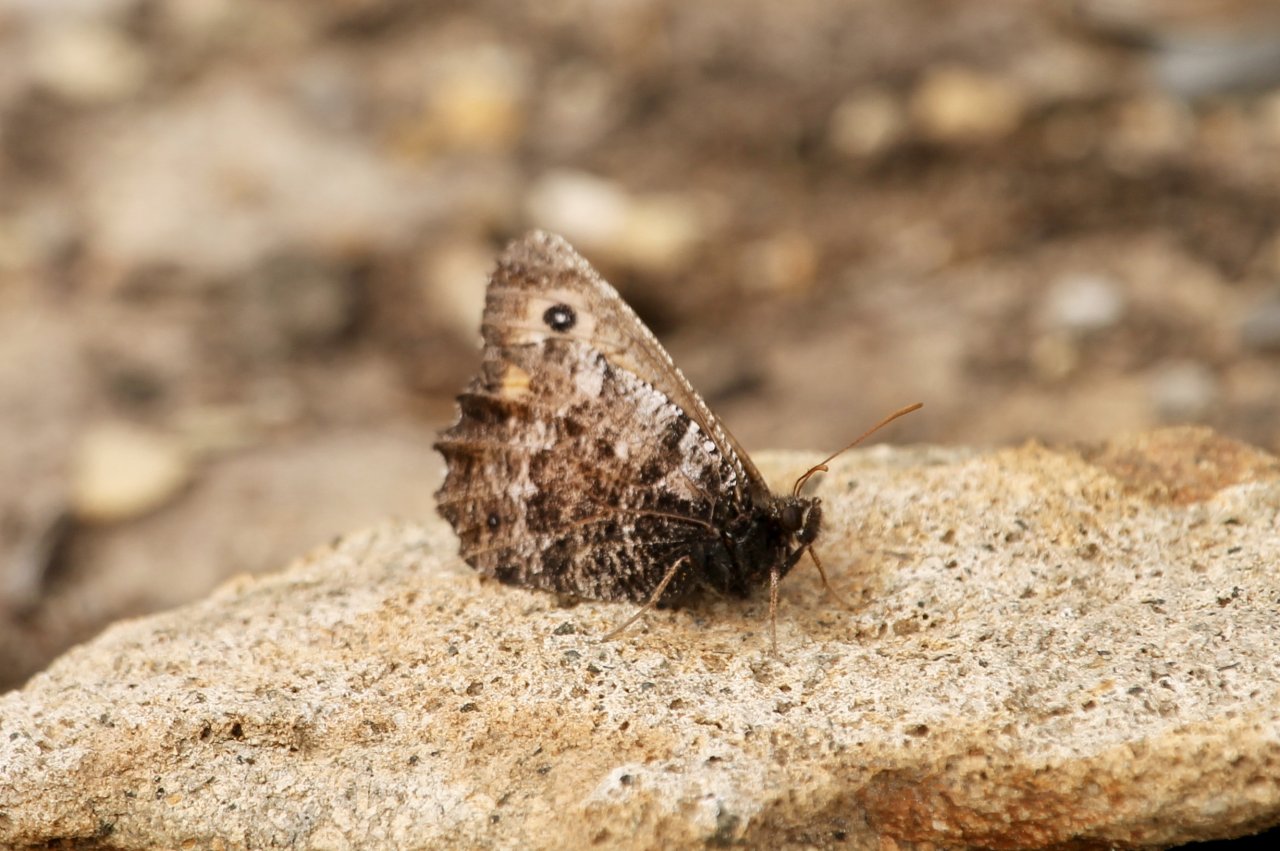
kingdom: Animalia
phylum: Arthropoda
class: Insecta
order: Lepidoptera
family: Nymphalidae
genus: Oeneis
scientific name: Oeneis nevadensis
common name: Great Arctic
